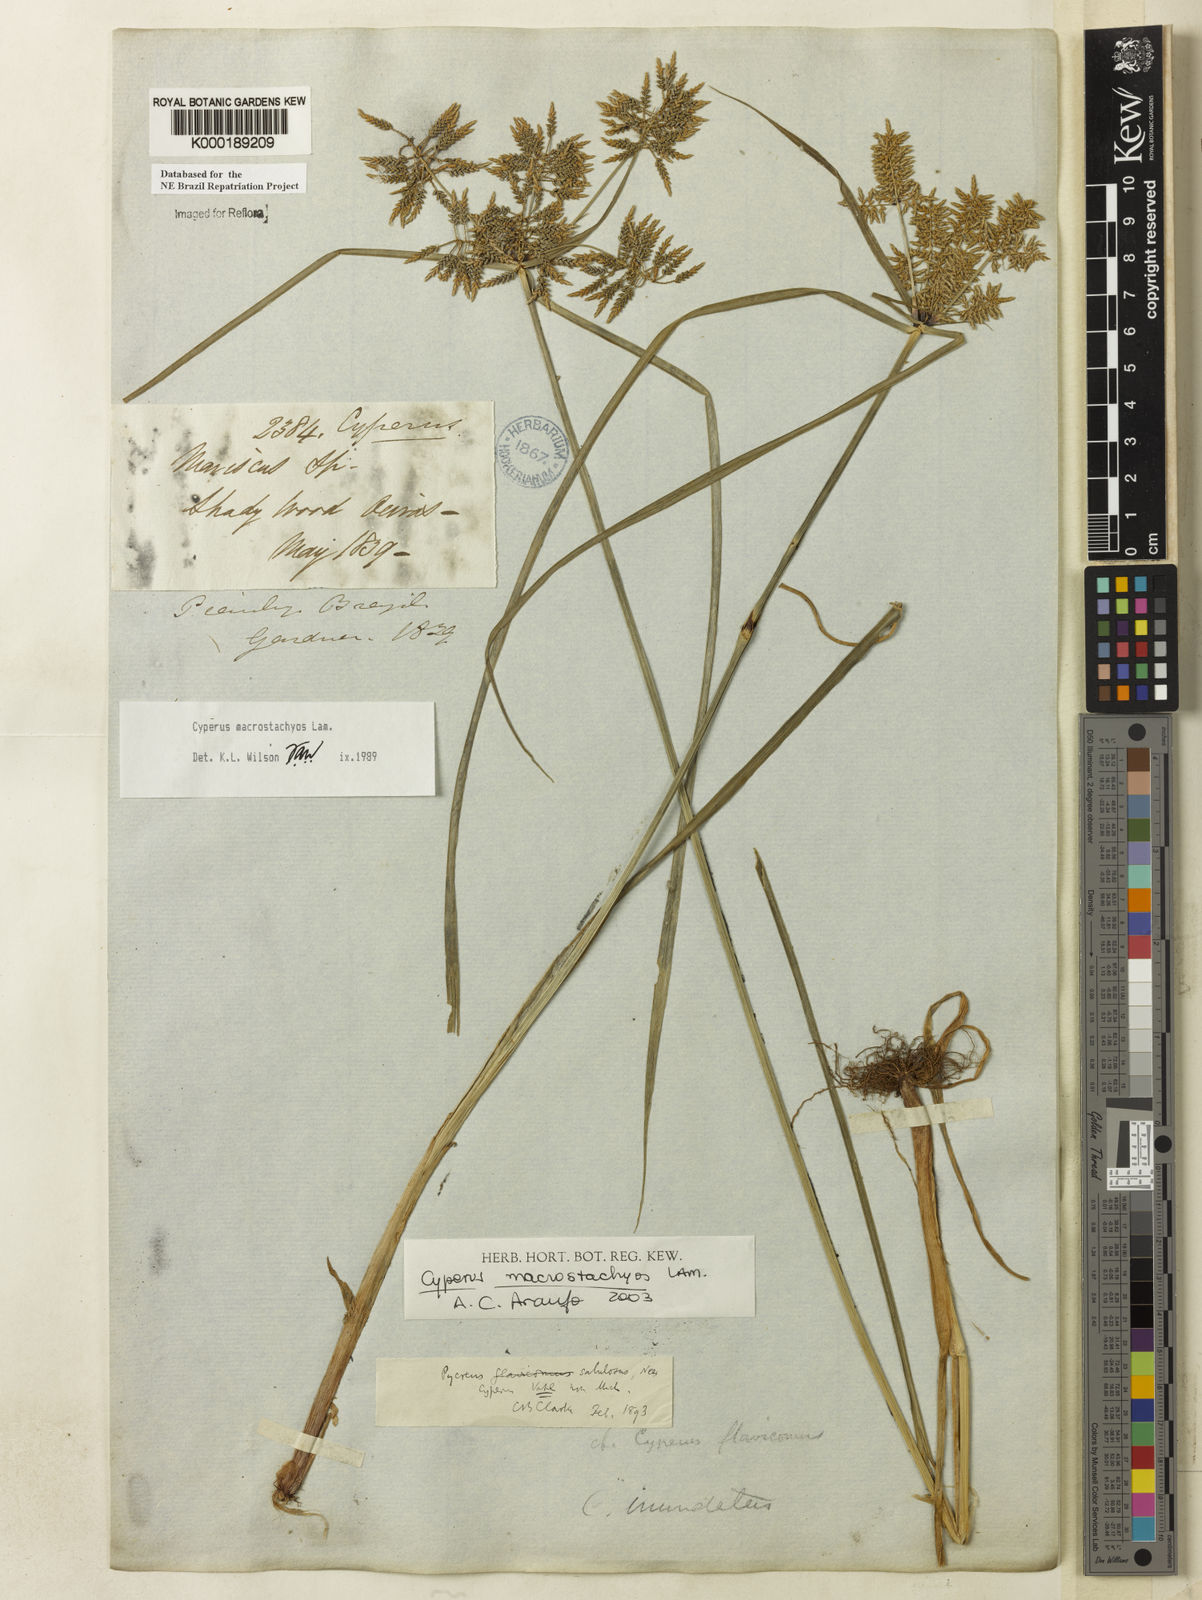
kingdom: Plantae
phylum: Tracheophyta
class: Liliopsida
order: Poales
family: Cyperaceae
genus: Cyperus
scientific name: Cyperus macrostachyos
